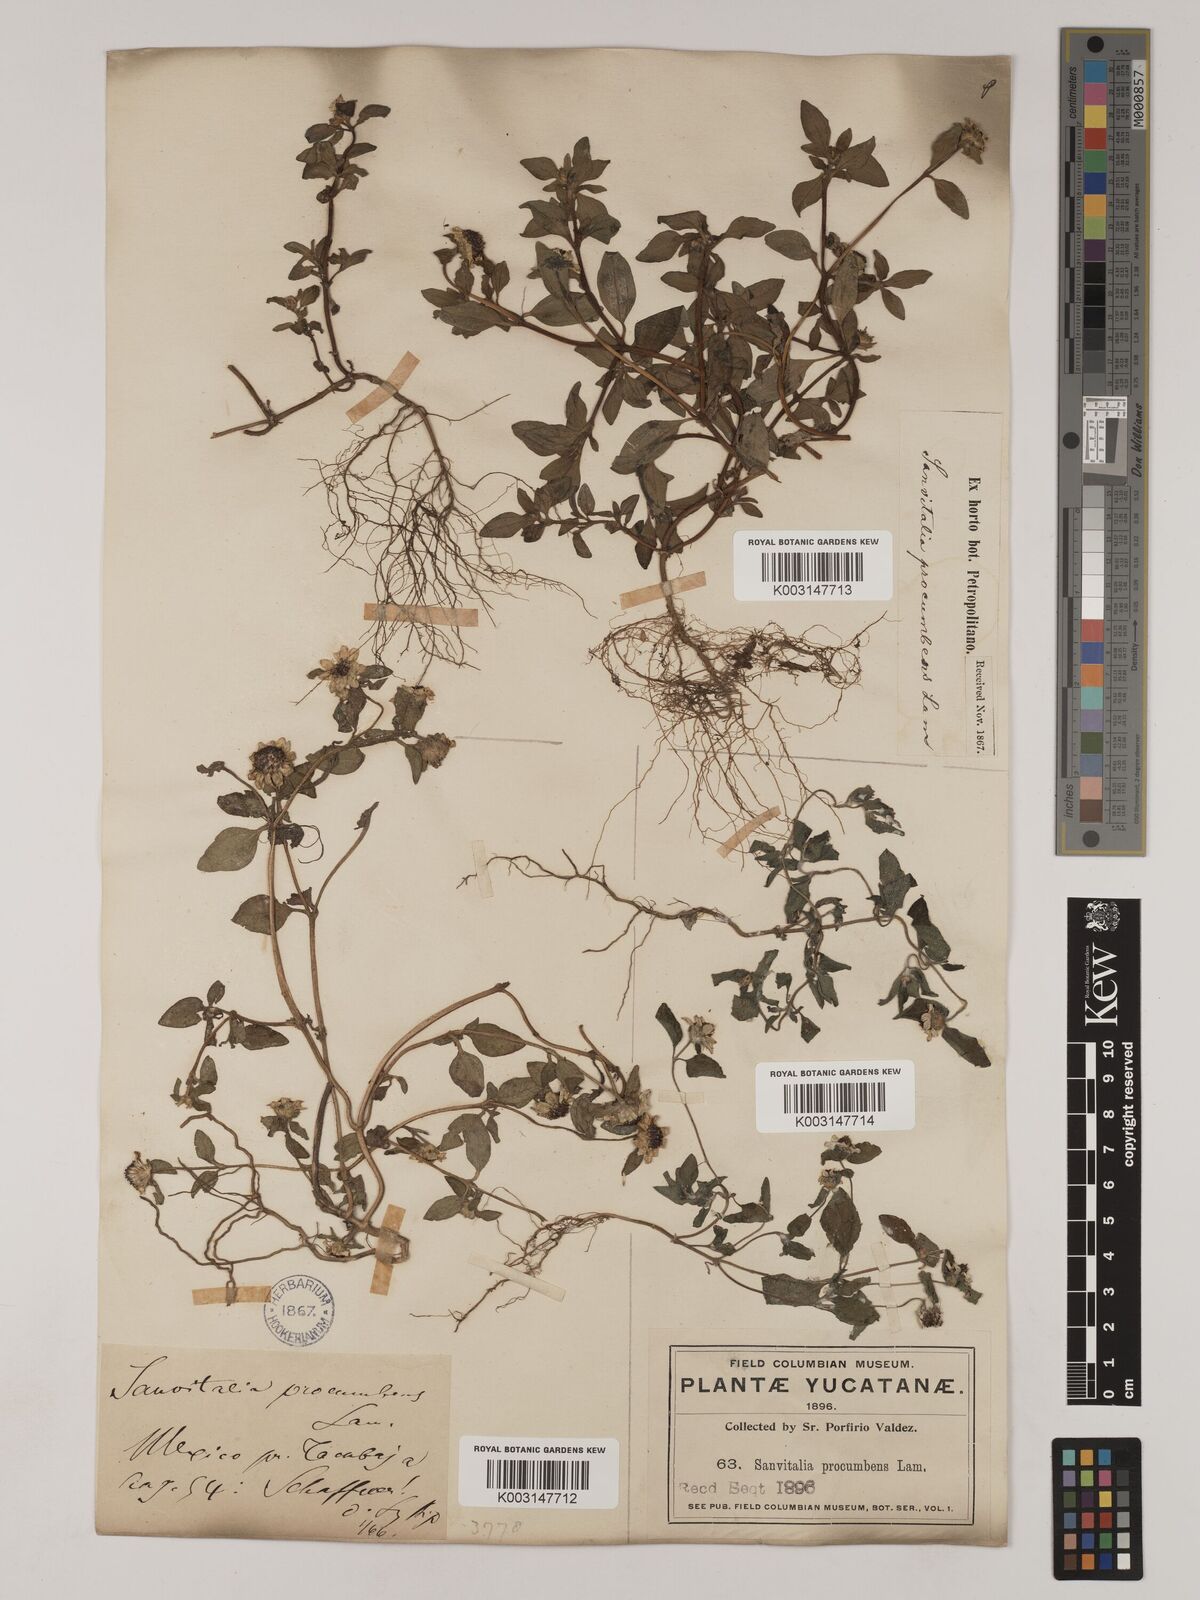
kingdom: Plantae
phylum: Tracheophyta
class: Magnoliopsida
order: Asterales
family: Asteraceae
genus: Sanvitalia
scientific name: Sanvitalia procumbens
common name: Mexican creeping zinnia
